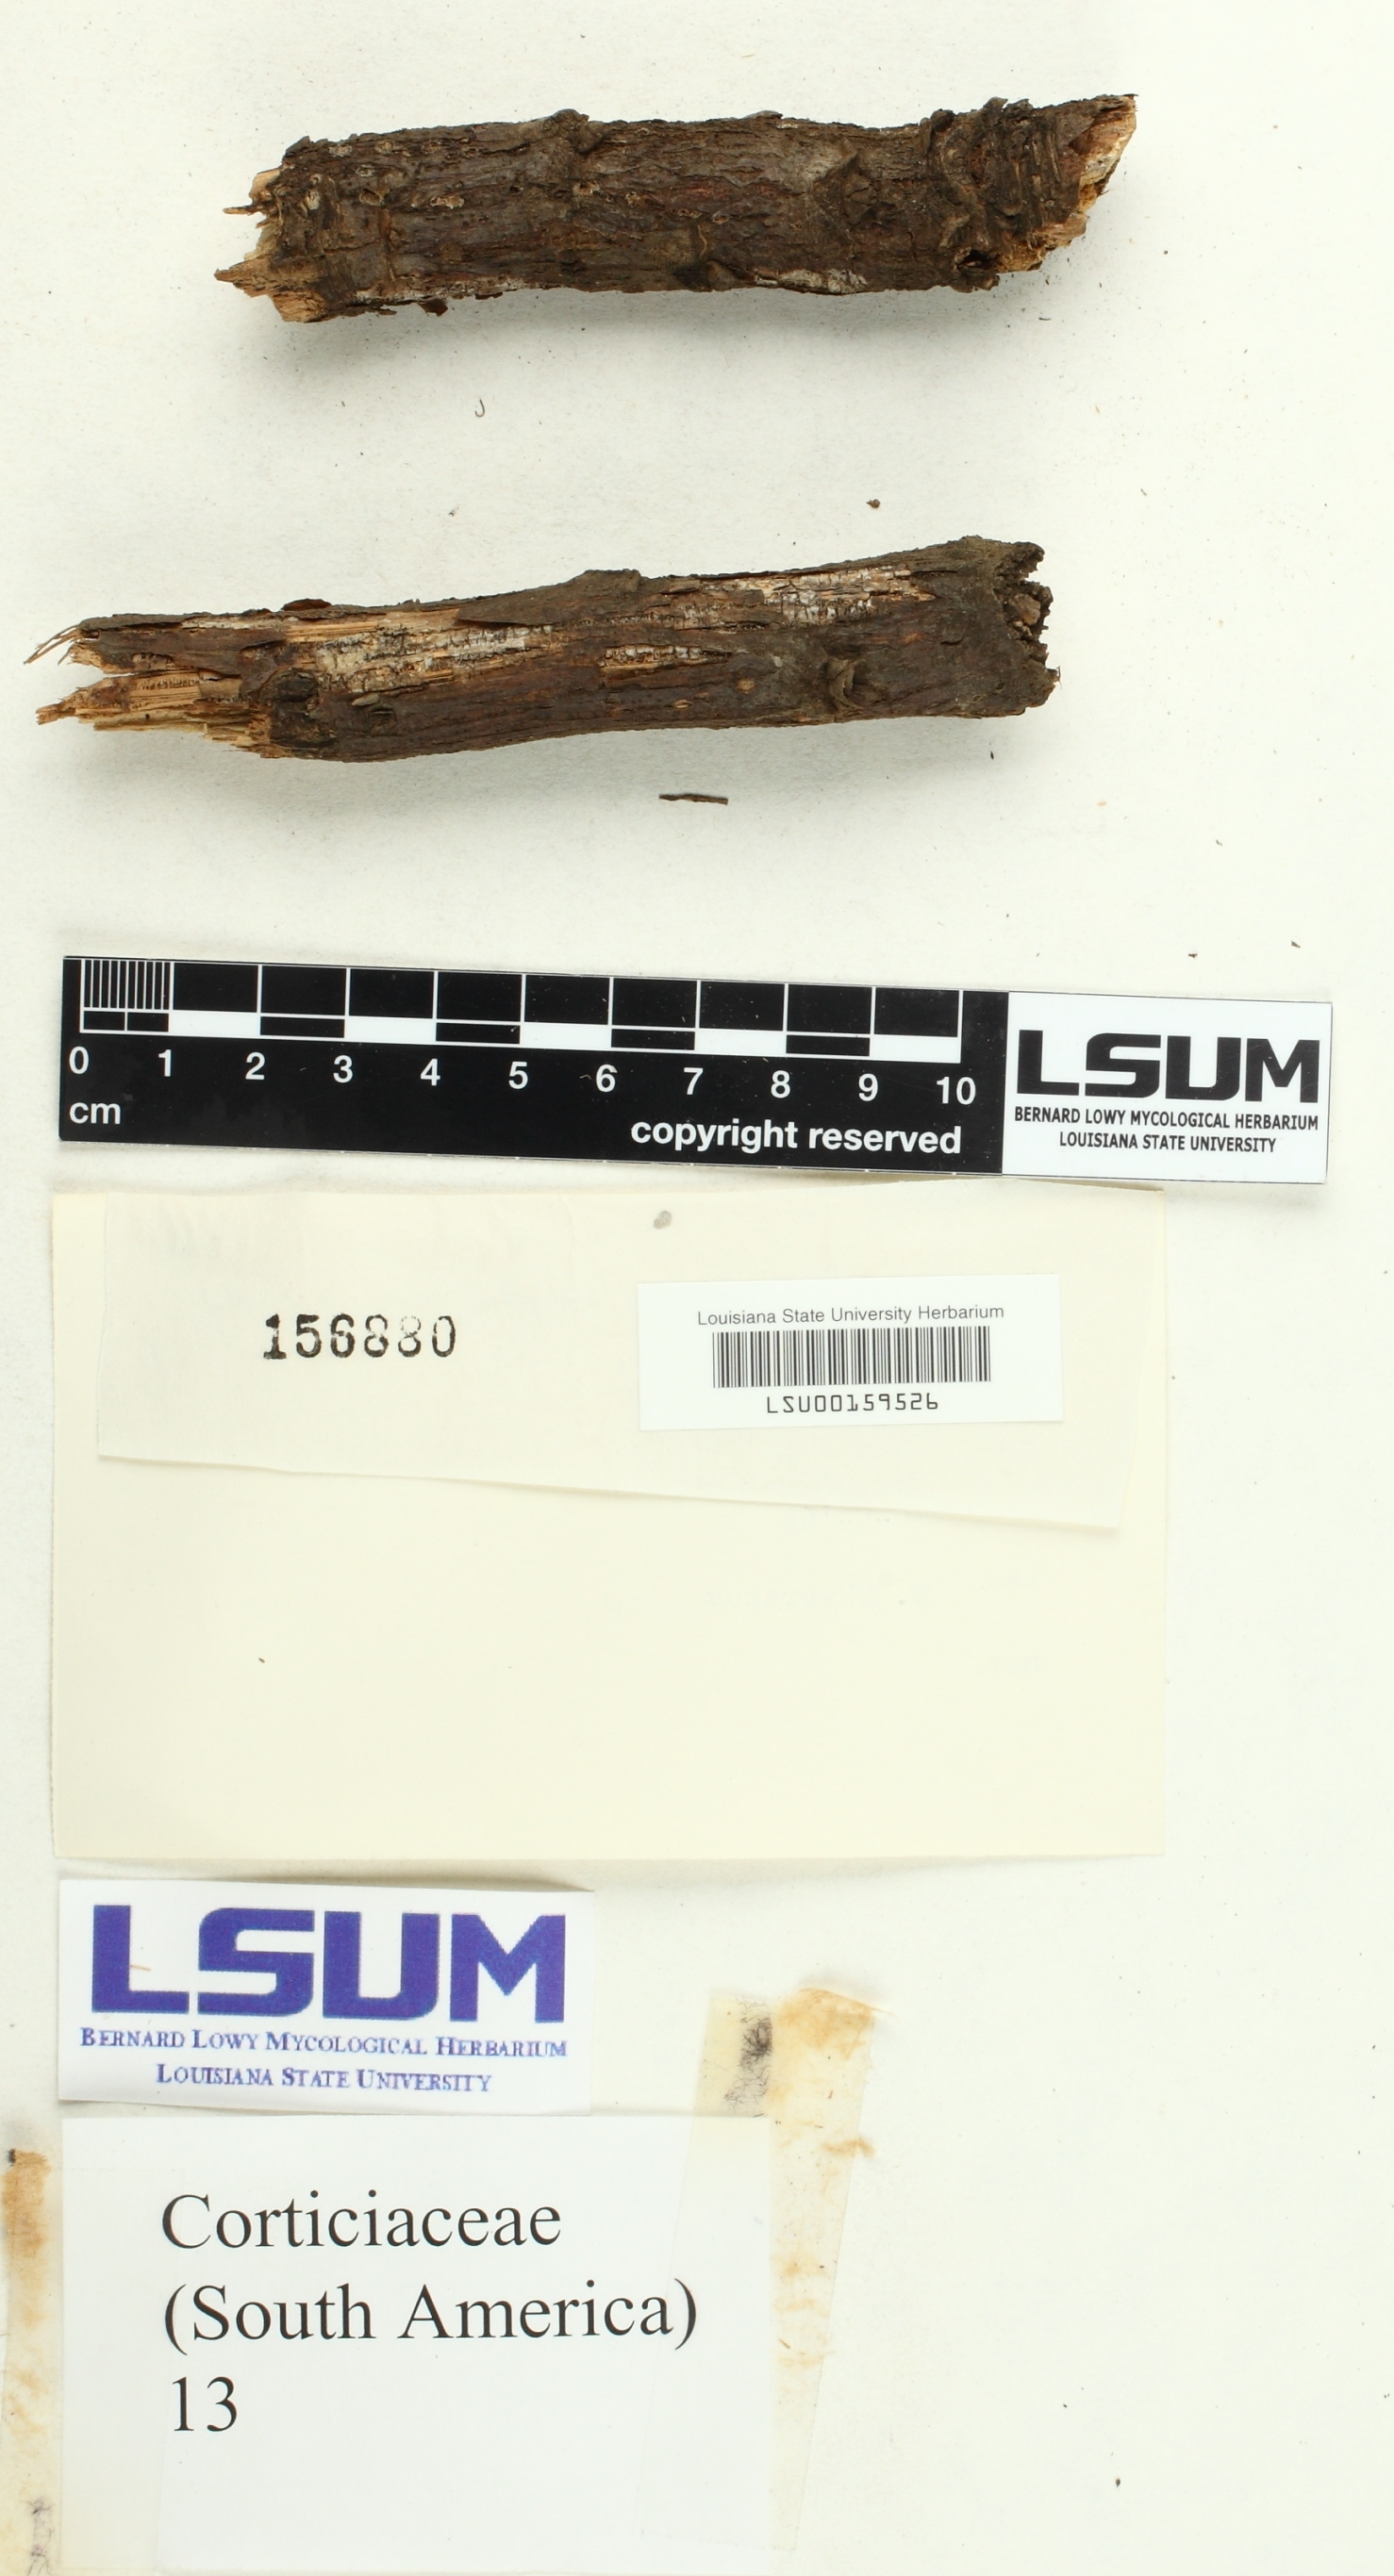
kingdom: Fungi
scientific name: Fungi
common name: Fungi
